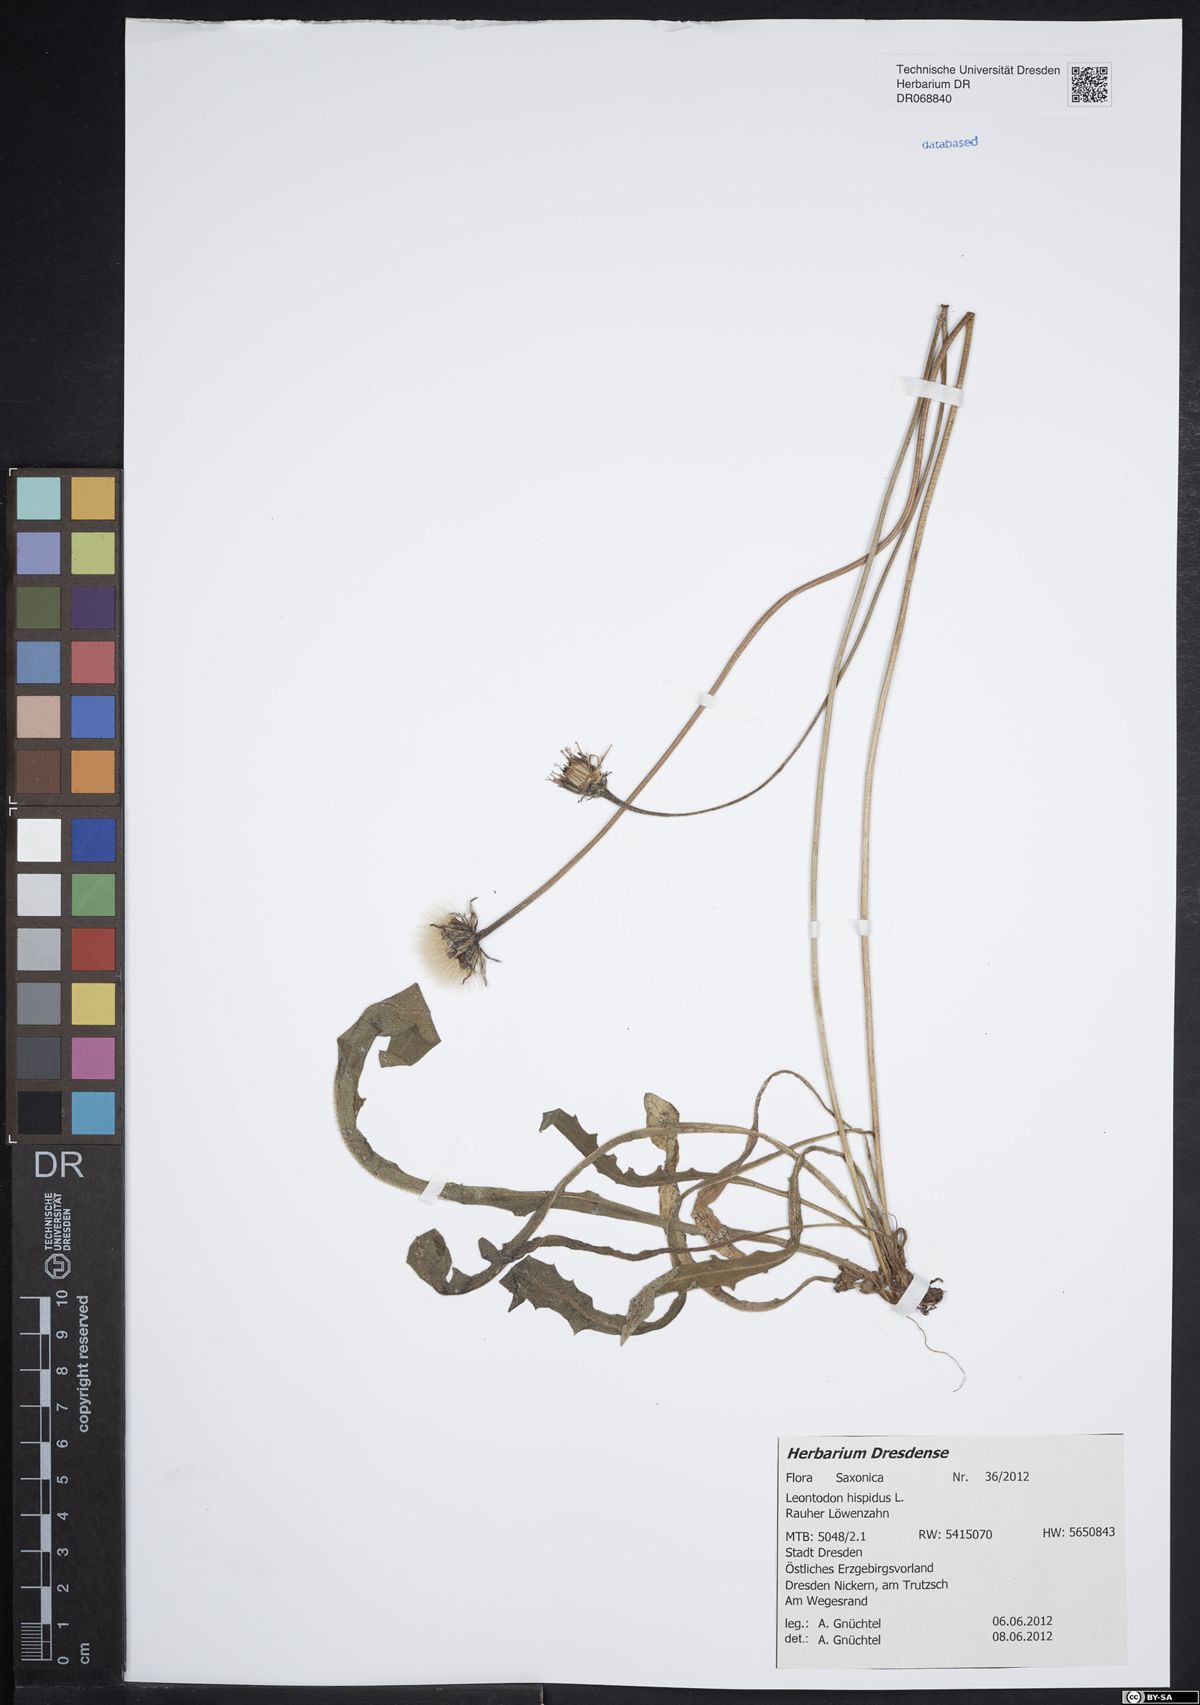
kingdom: Plantae
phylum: Tracheophyta
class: Magnoliopsida
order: Asterales
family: Asteraceae
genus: Leontodon
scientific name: Leontodon hispidus
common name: Rough hawkbit
